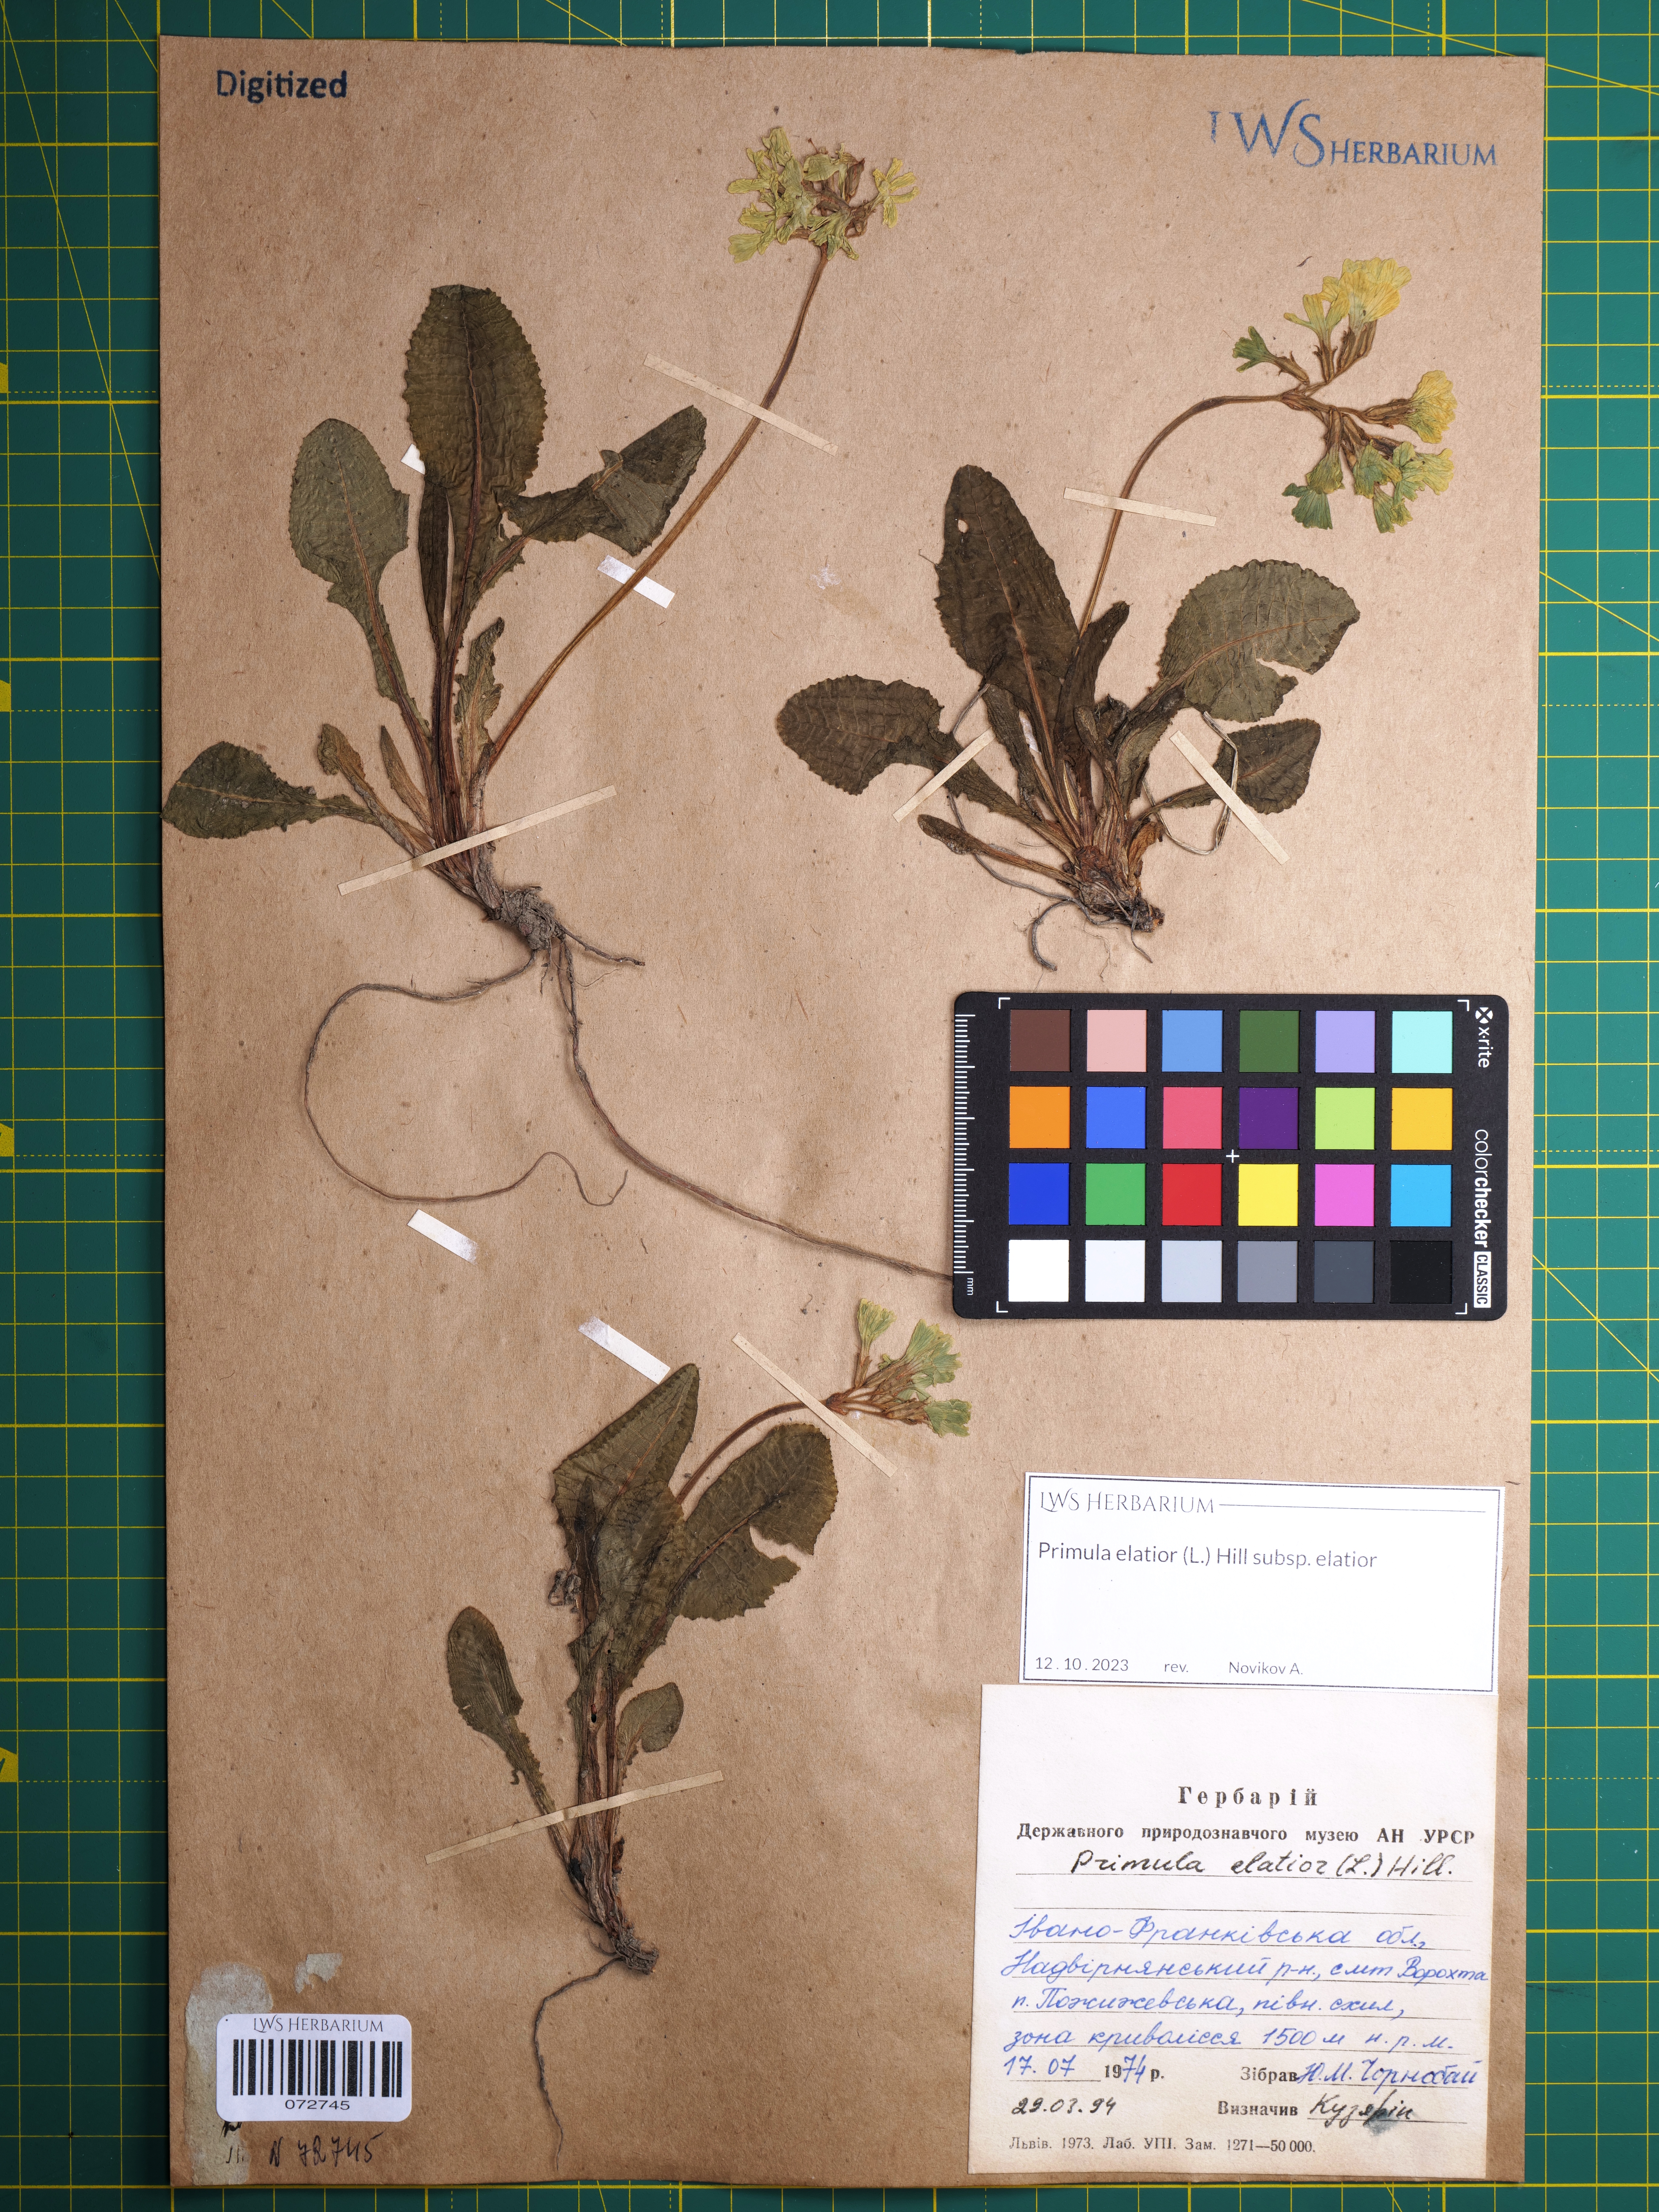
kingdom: Plantae
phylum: Tracheophyta
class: Magnoliopsida
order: Ericales
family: Primulaceae
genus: Primula
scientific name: Primula elatior
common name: Oxlip
